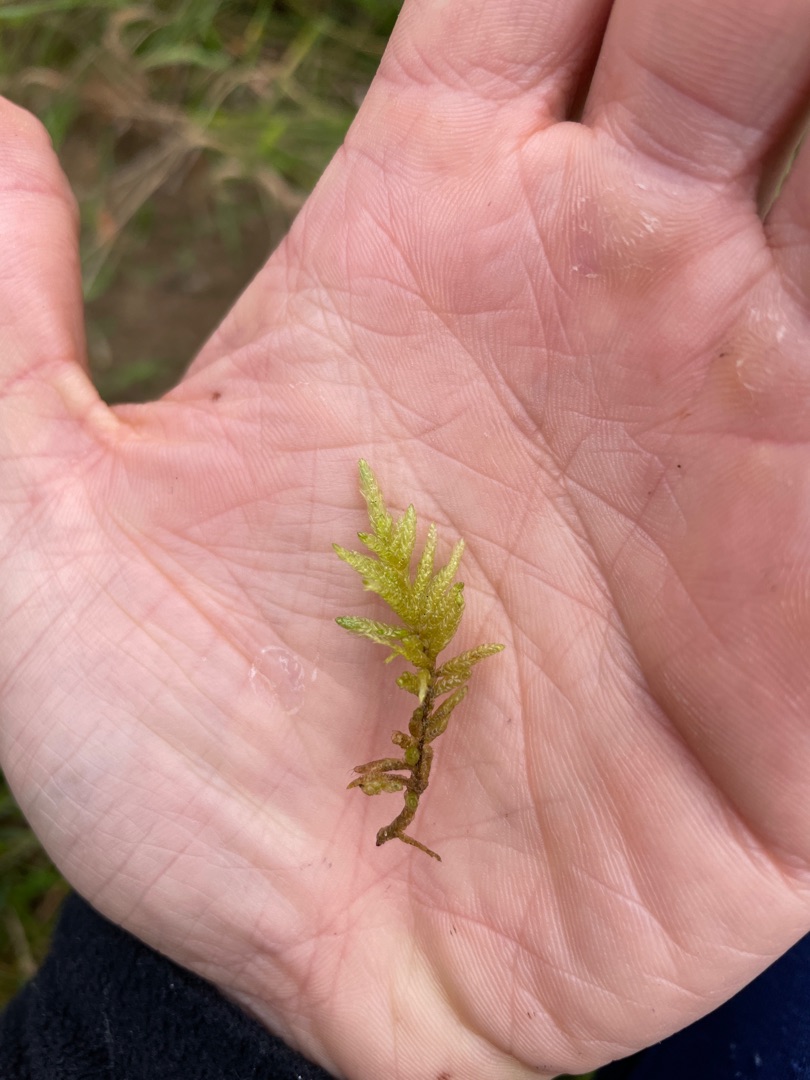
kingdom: Plantae
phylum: Bryophyta
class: Bryopsida
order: Hypnales
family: Brachytheciaceae
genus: Pseudoscleropodium
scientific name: Pseudoscleropodium purum
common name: Hulbladet fedtmos
